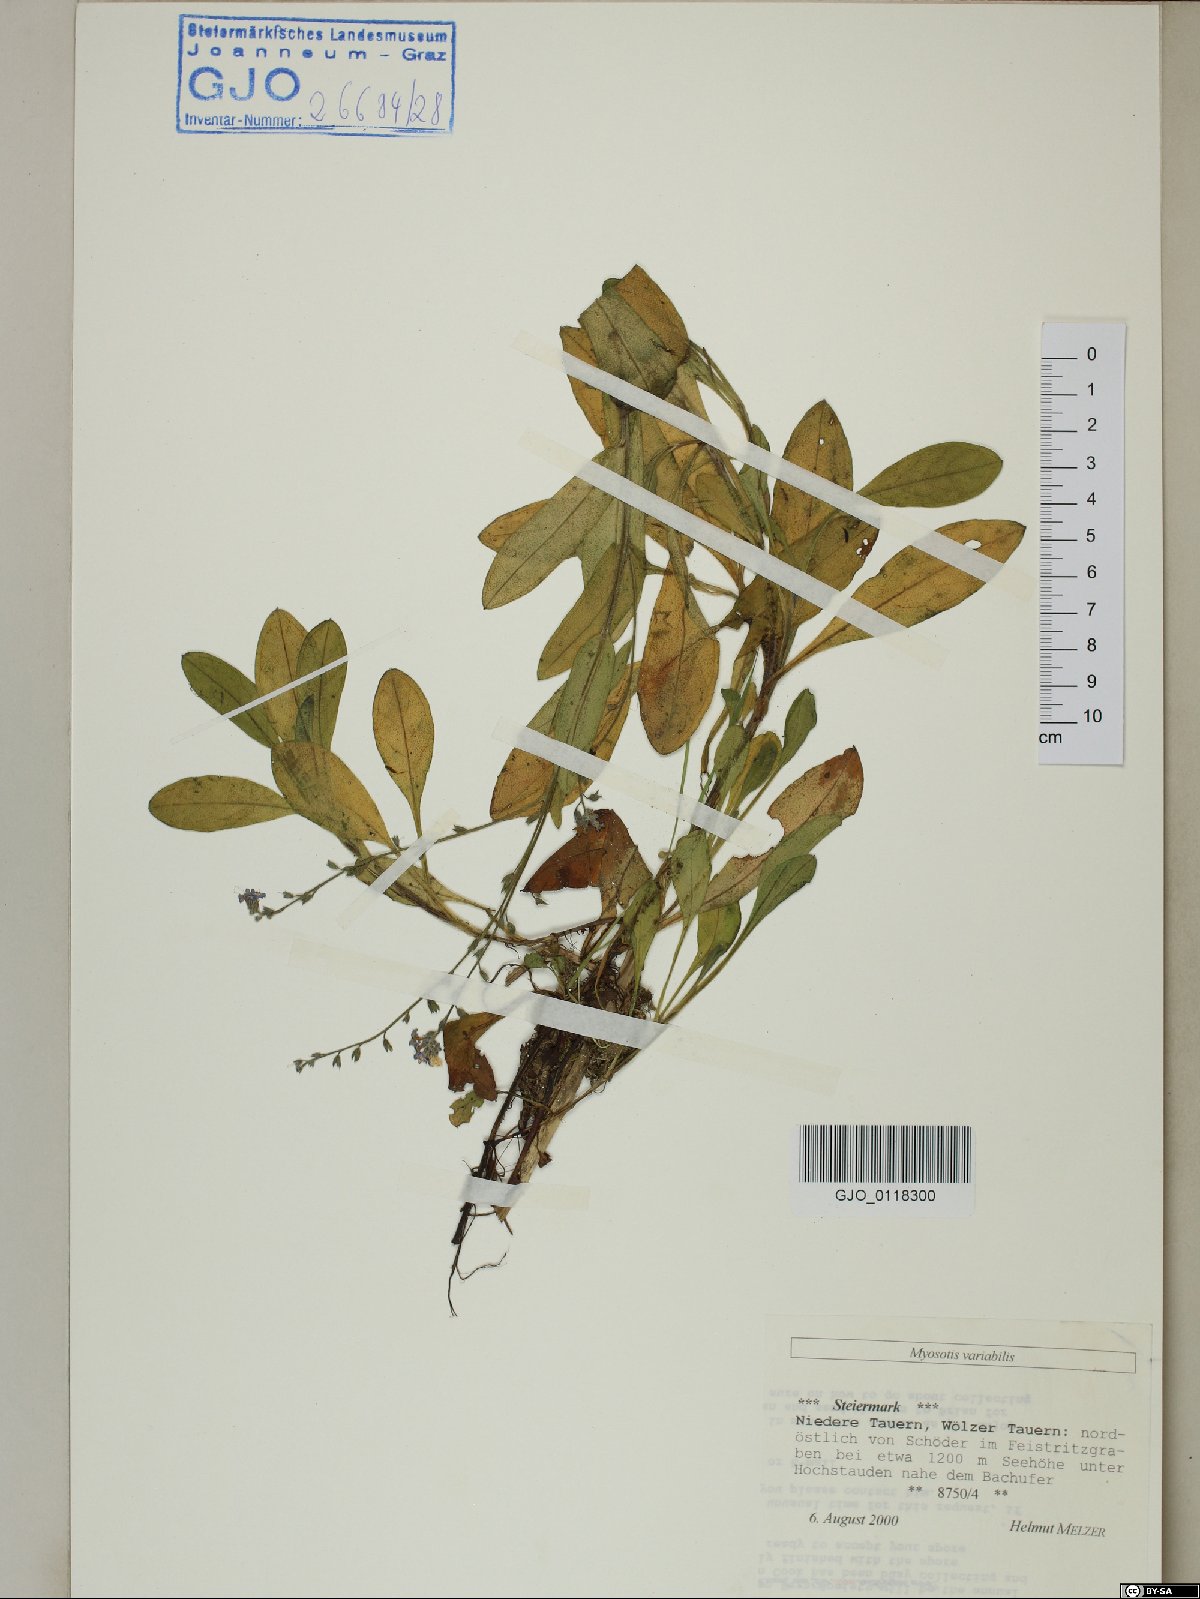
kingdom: Plantae
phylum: Tracheophyta
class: Magnoliopsida
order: Boraginales
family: Boraginaceae
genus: Myosotis
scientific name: Myosotis decumbens
